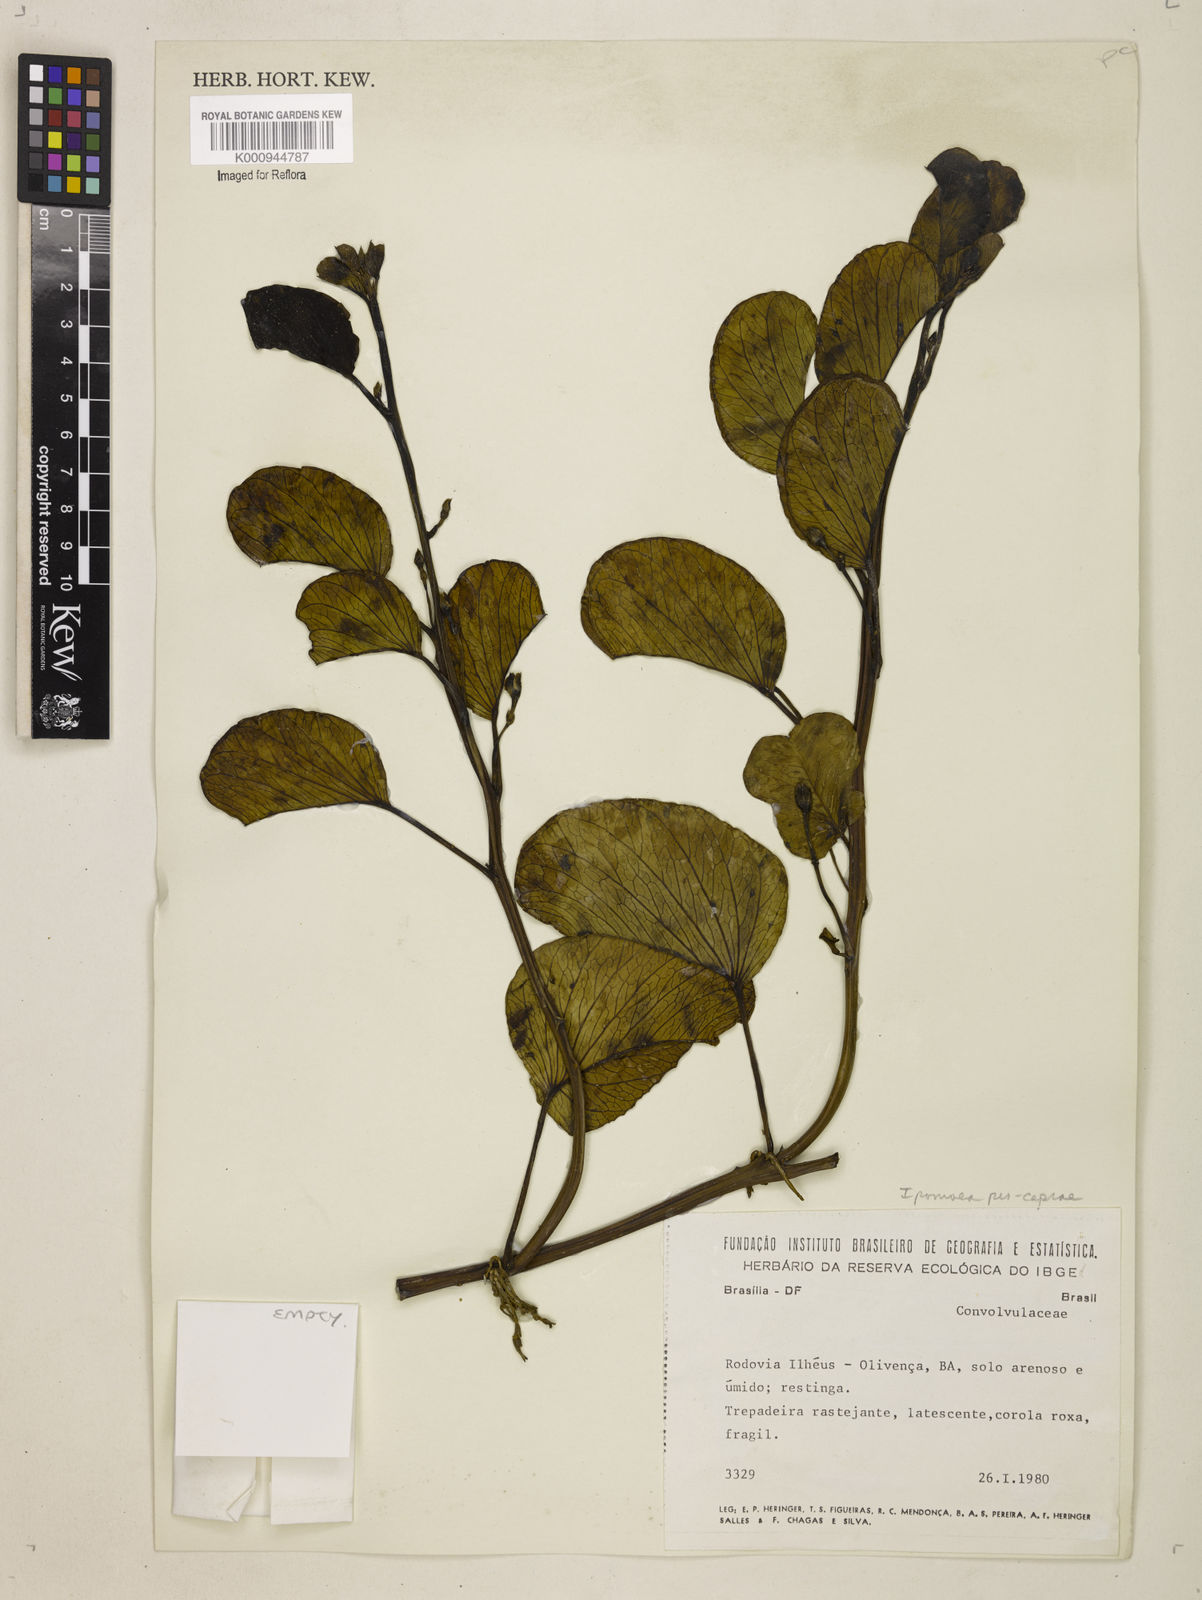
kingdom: Plantae
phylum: Tracheophyta
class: Magnoliopsida
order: Solanales
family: Convolvulaceae
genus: Ipomoea
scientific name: Ipomoea pes-caprae
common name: Beach morning glory
